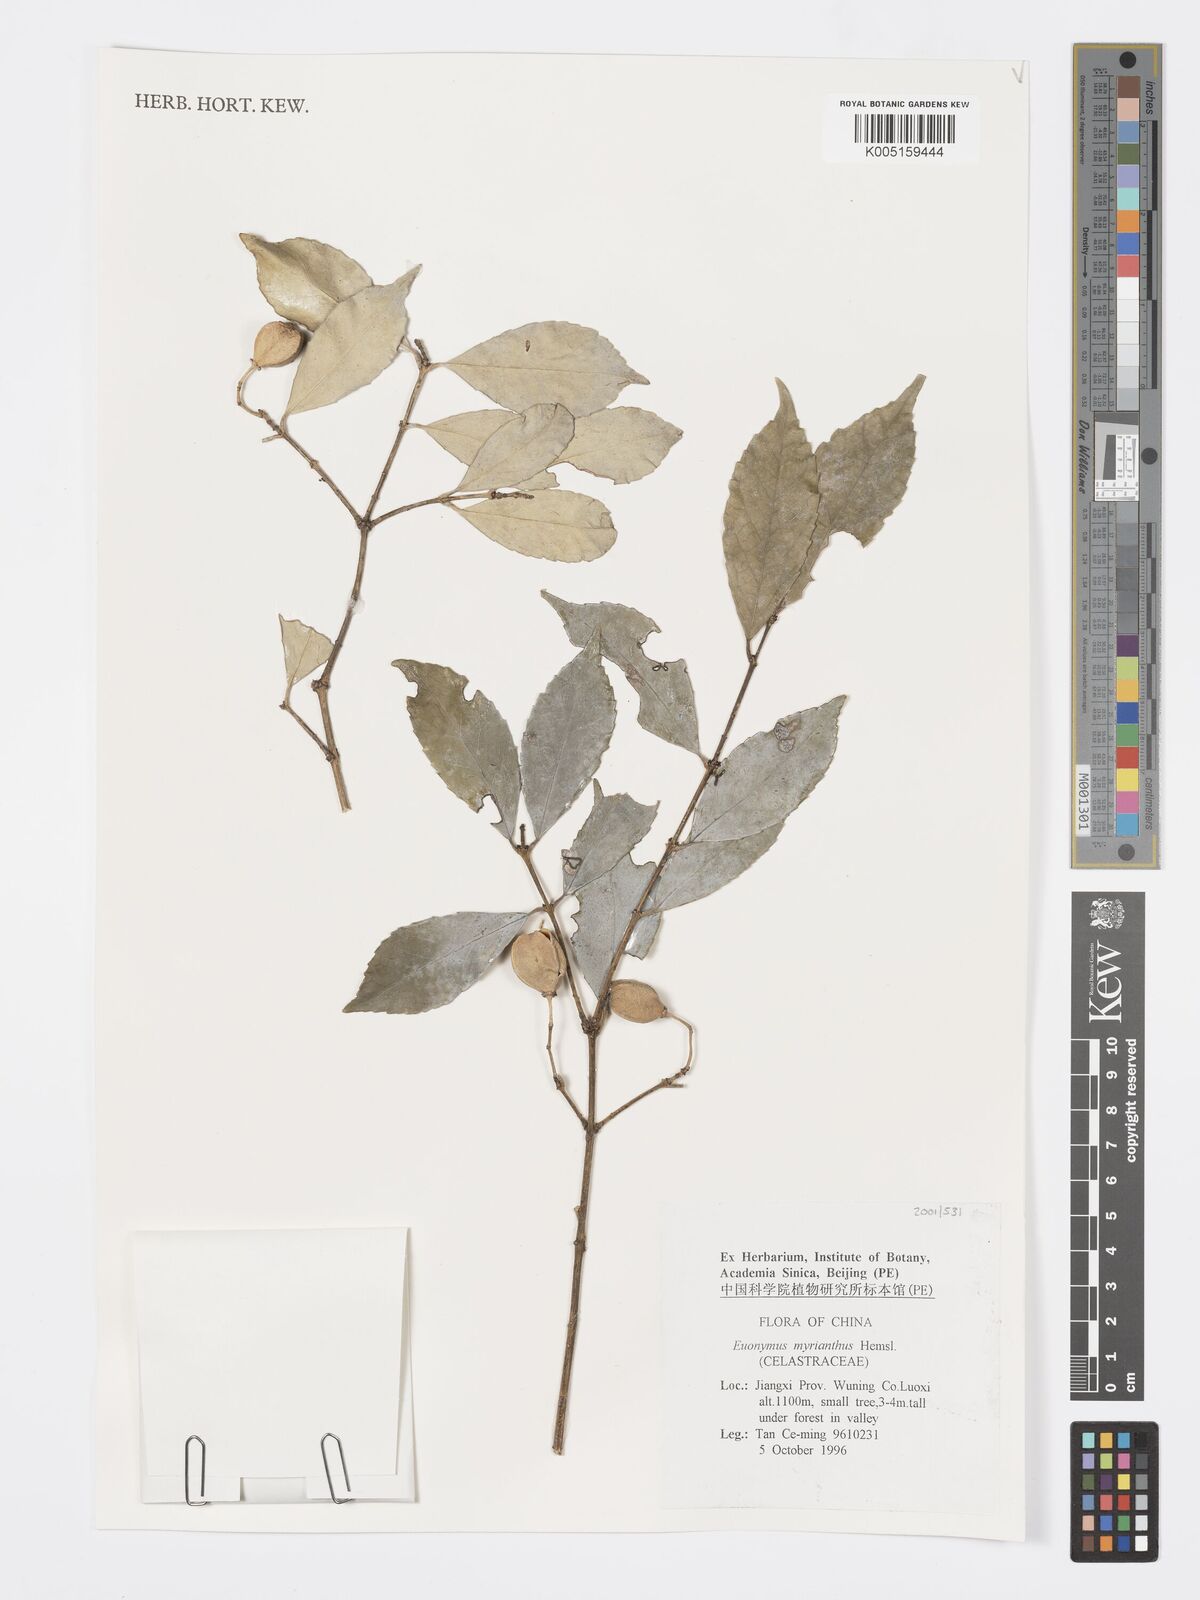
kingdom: Plantae
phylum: Tracheophyta
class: Magnoliopsida
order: Celastrales
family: Celastraceae
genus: Euonymus
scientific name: Euonymus myrianthus
